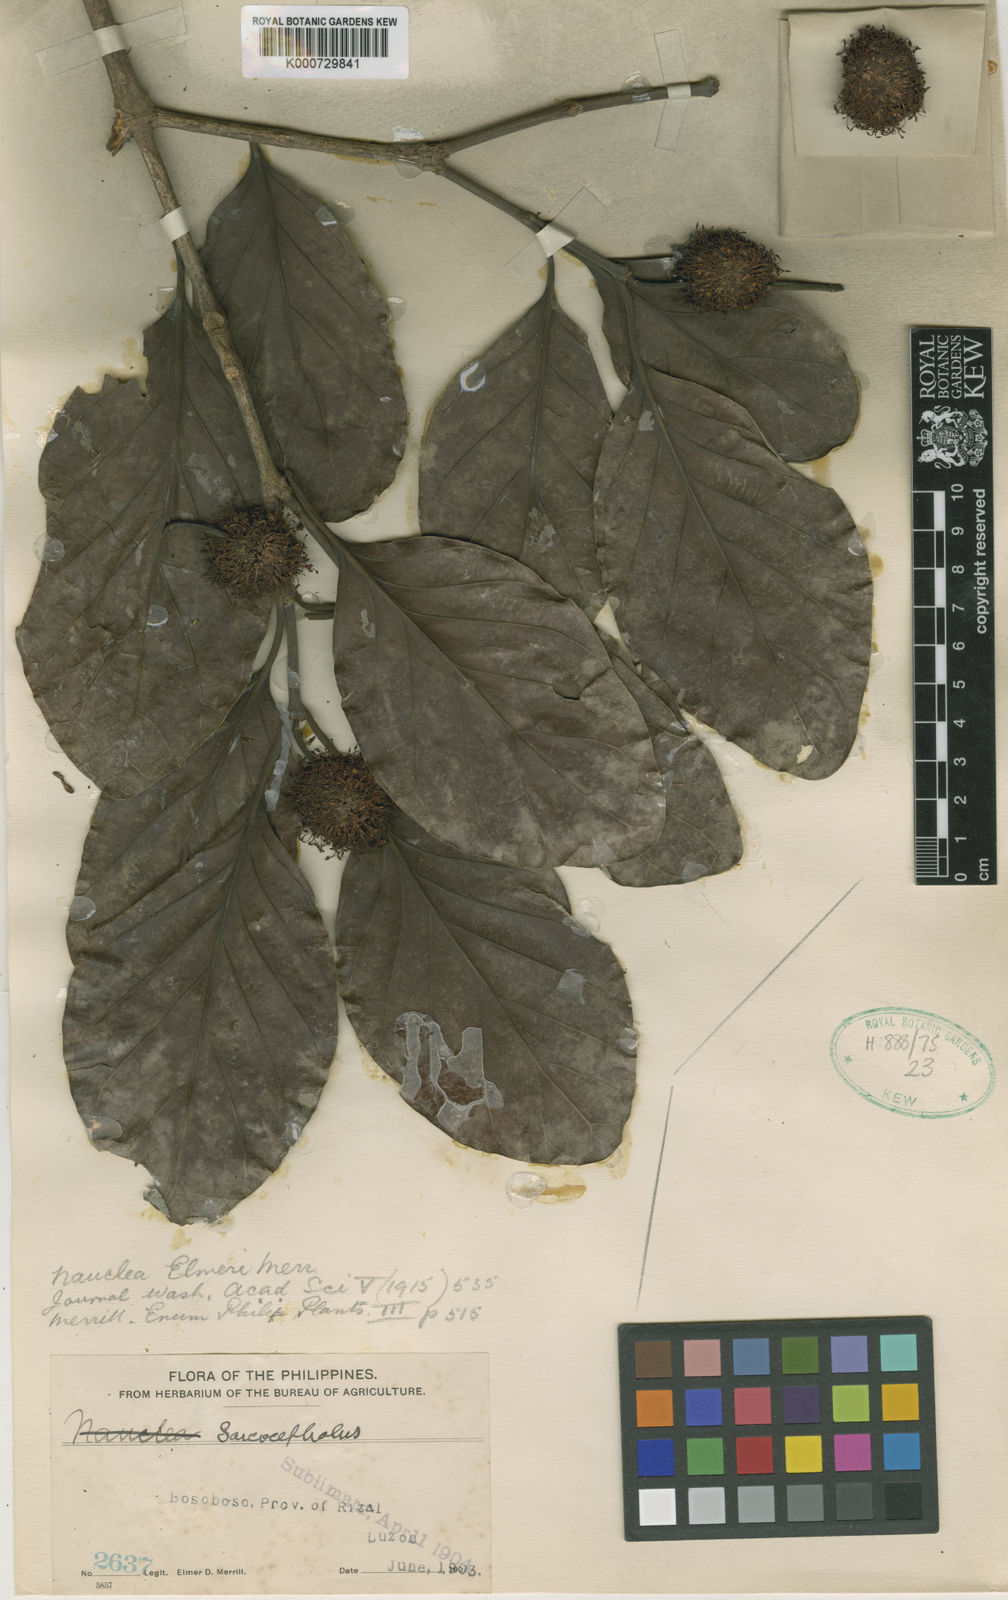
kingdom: Plantae
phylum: Tracheophyta
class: Magnoliopsida
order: Gentianales
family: Rubiaceae
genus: Nauclea
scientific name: Nauclea orientalis
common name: Leichhardt-pine
